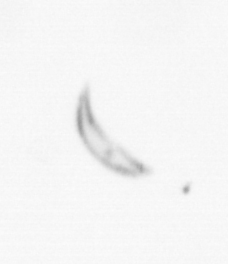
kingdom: Chromista
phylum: Ochrophyta
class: Bacillariophyceae
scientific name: Bacillariophyceae
